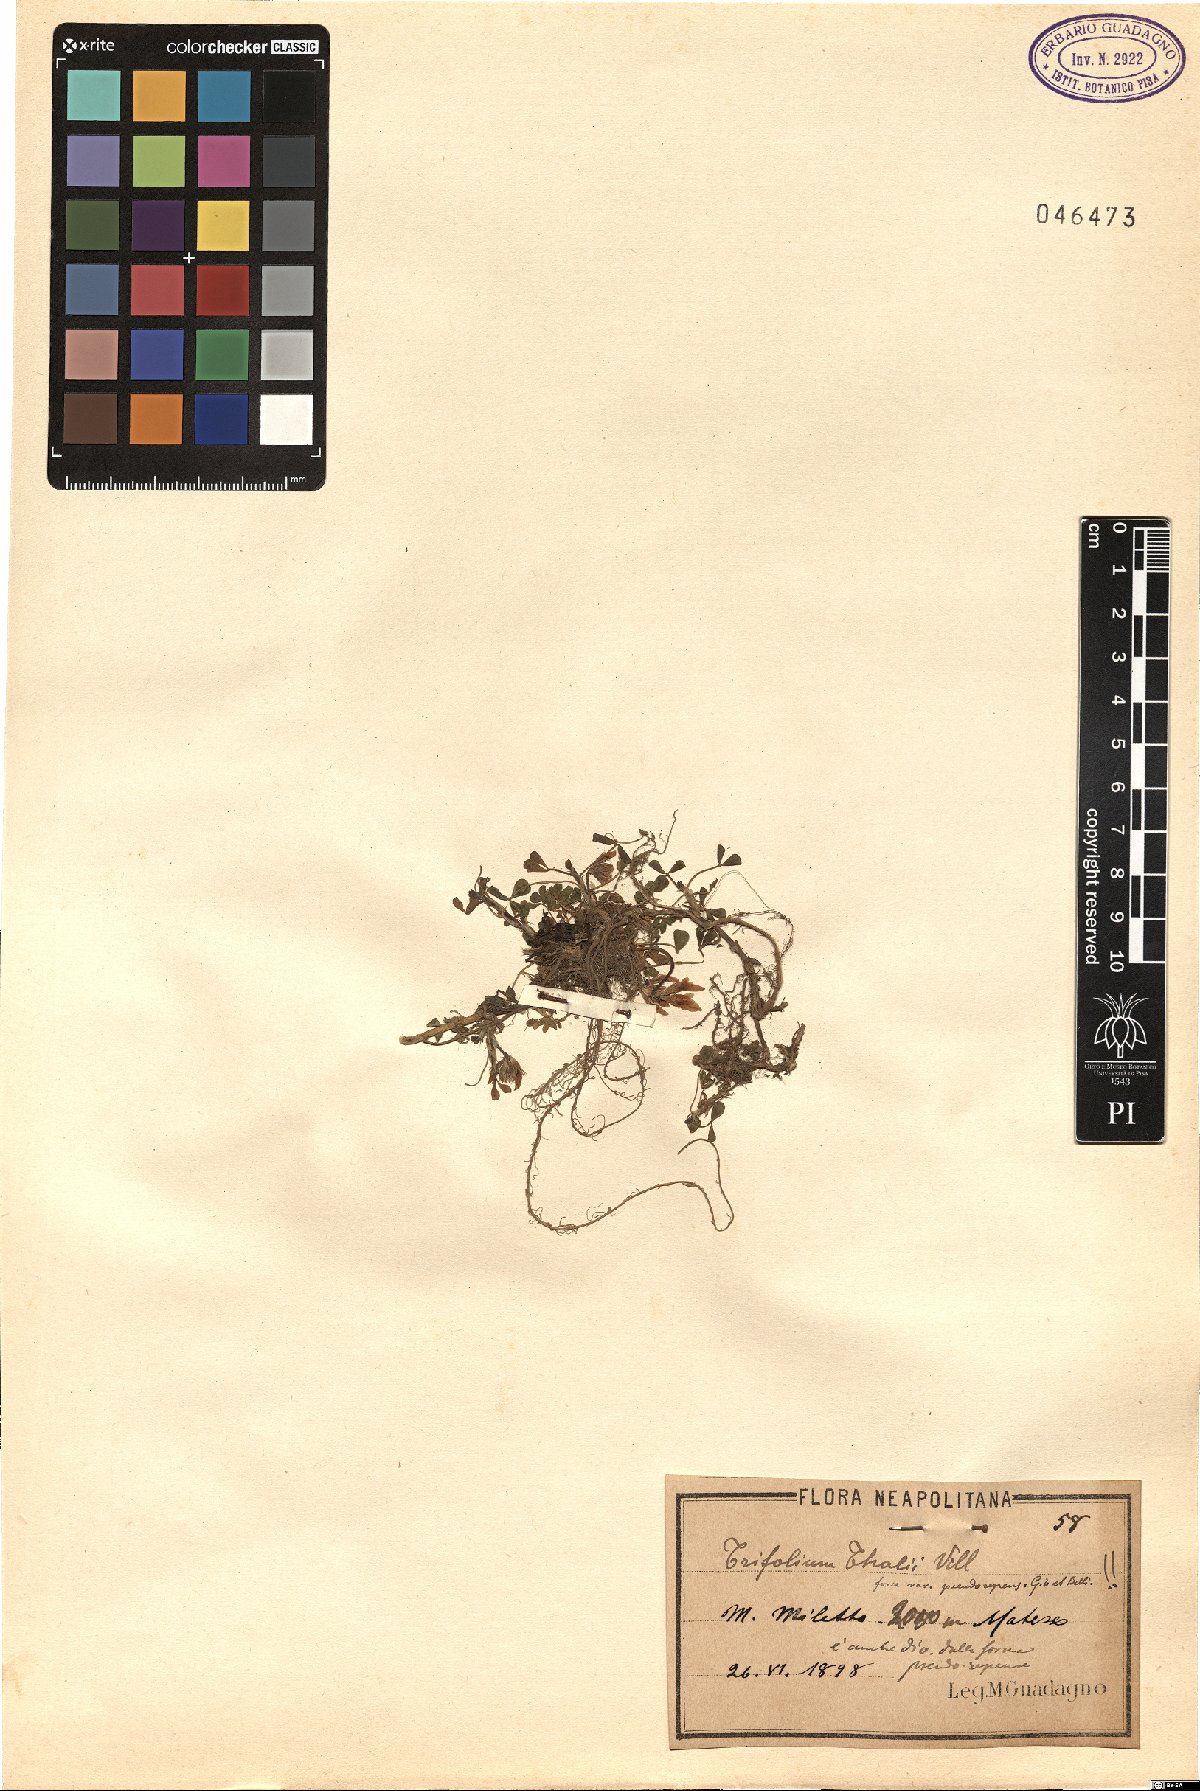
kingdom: Plantae
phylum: Tracheophyta
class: Magnoliopsida
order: Fabales
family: Fabaceae
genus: Trifolium
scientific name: Trifolium thalii
